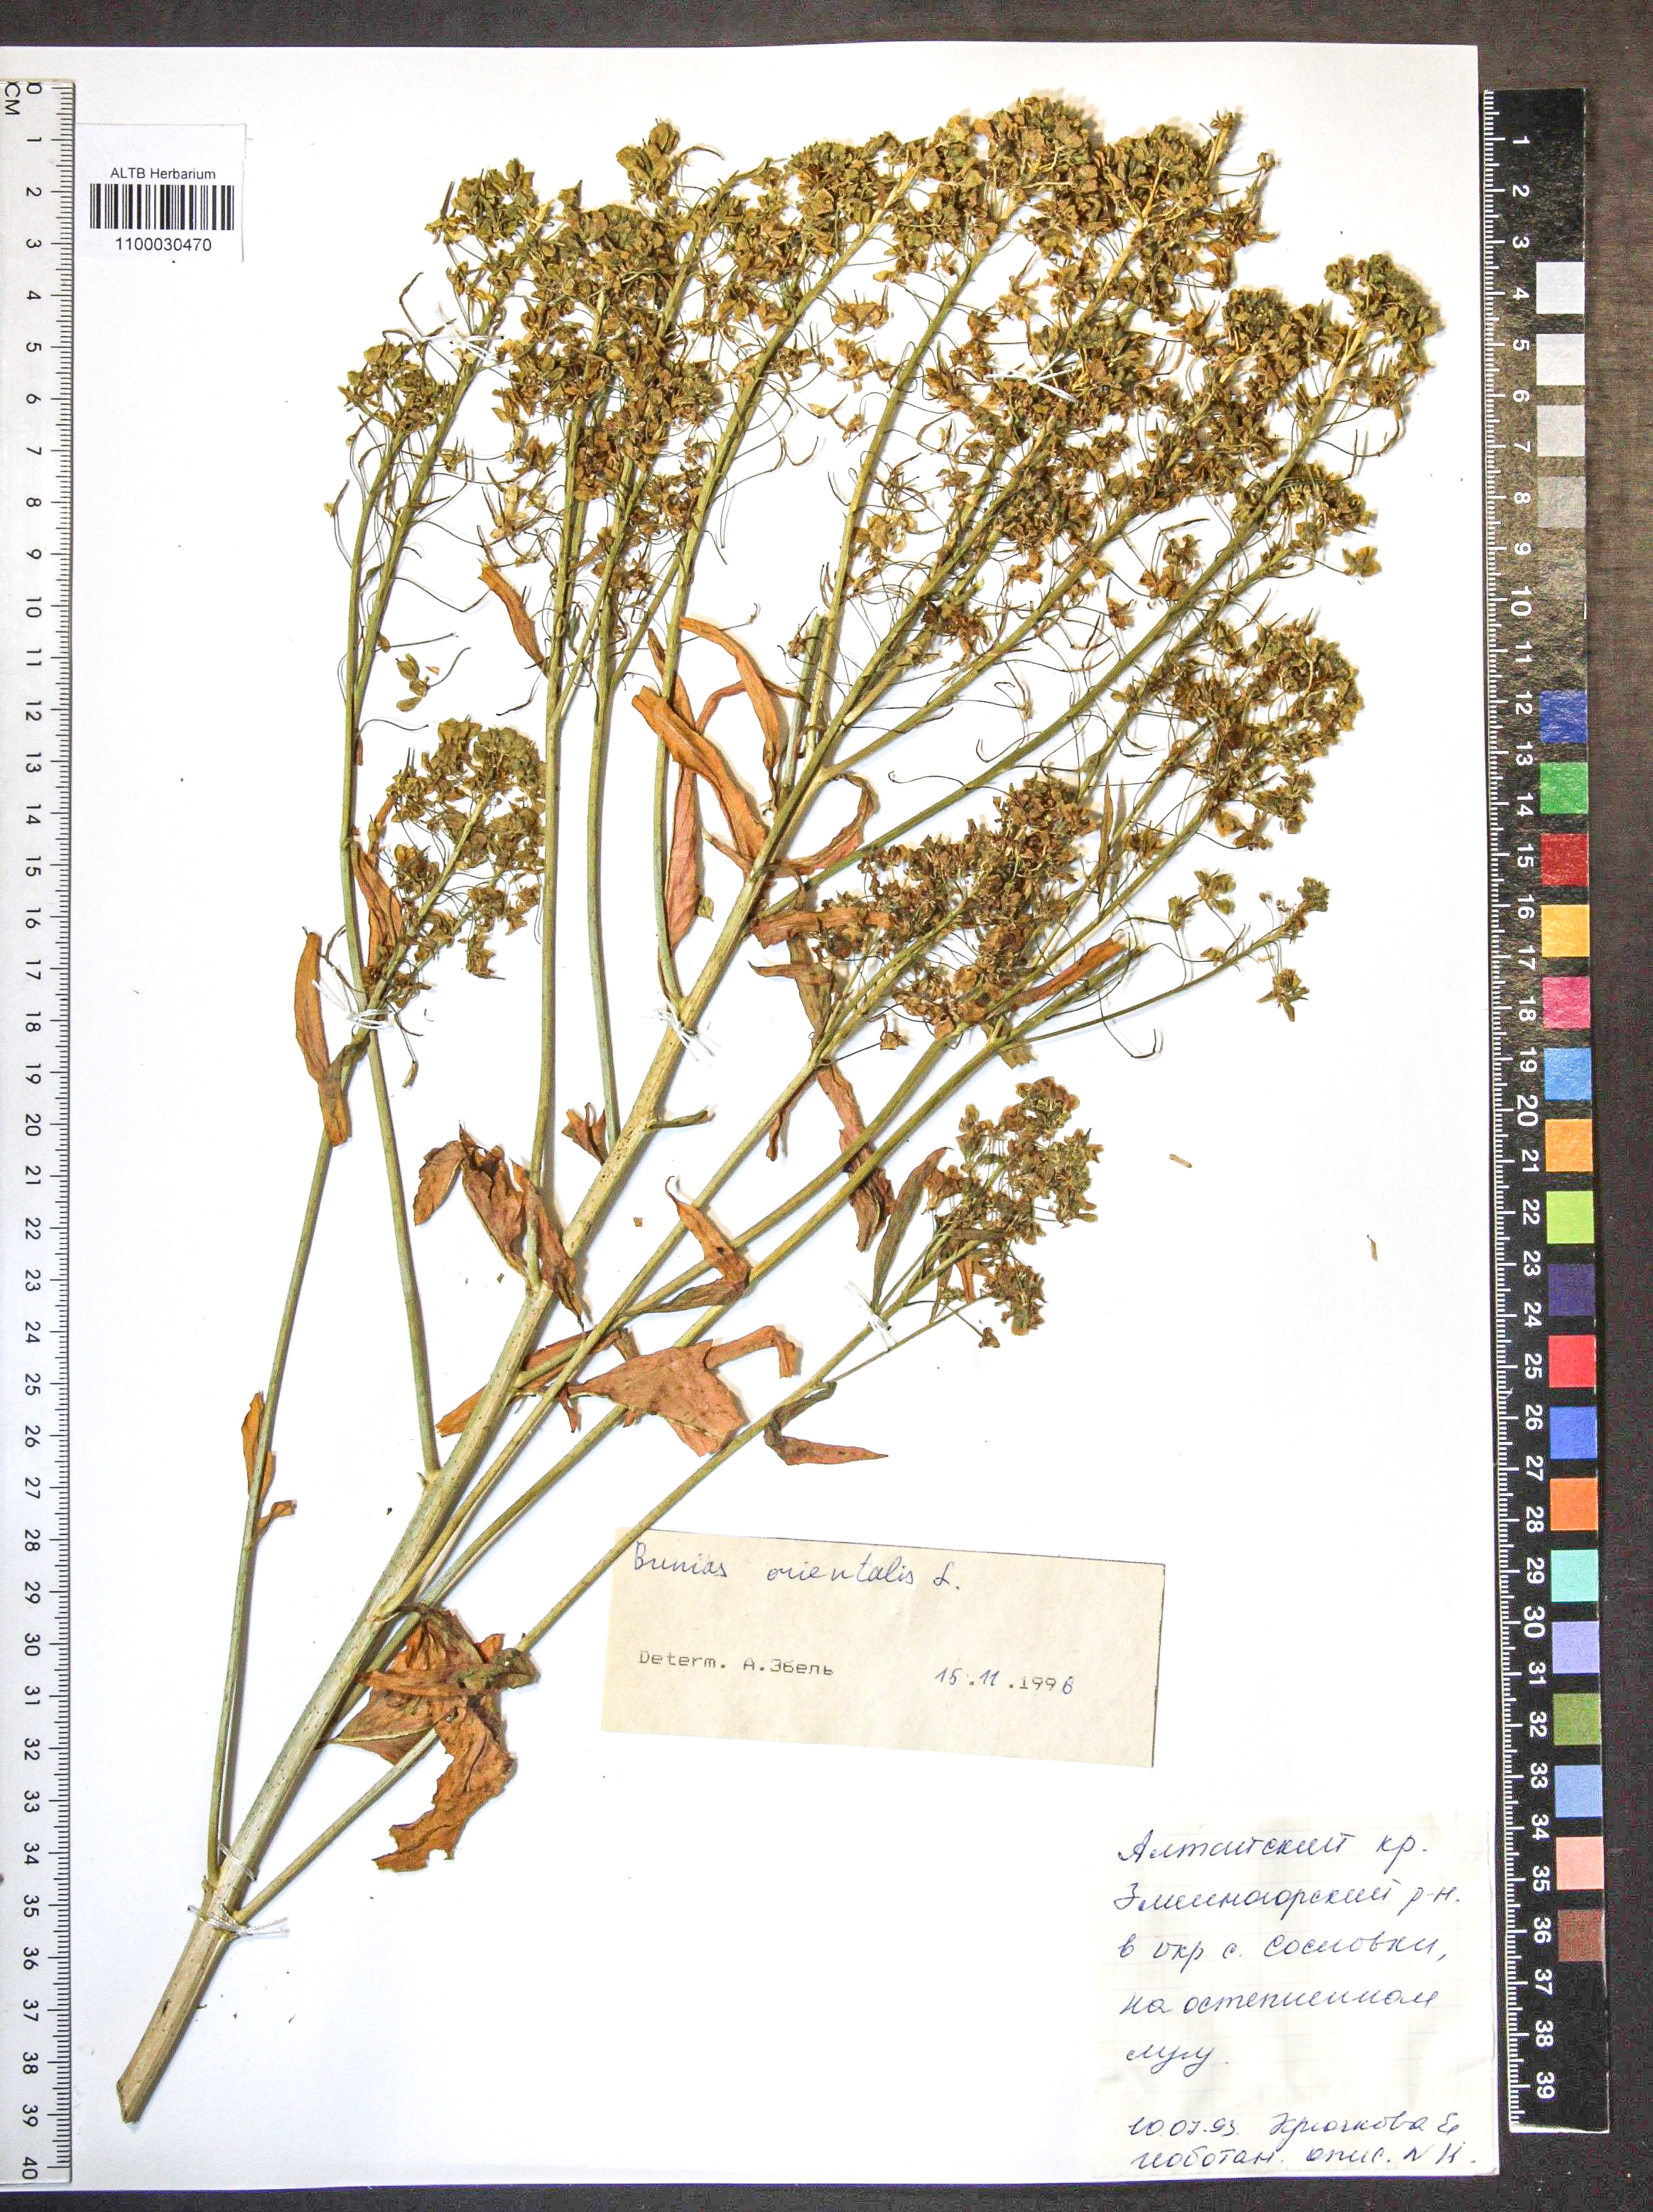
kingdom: Plantae
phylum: Tracheophyta
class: Magnoliopsida
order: Brassicales
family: Brassicaceae
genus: Bunias
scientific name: Bunias orientalis
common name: Warty-cabbage
